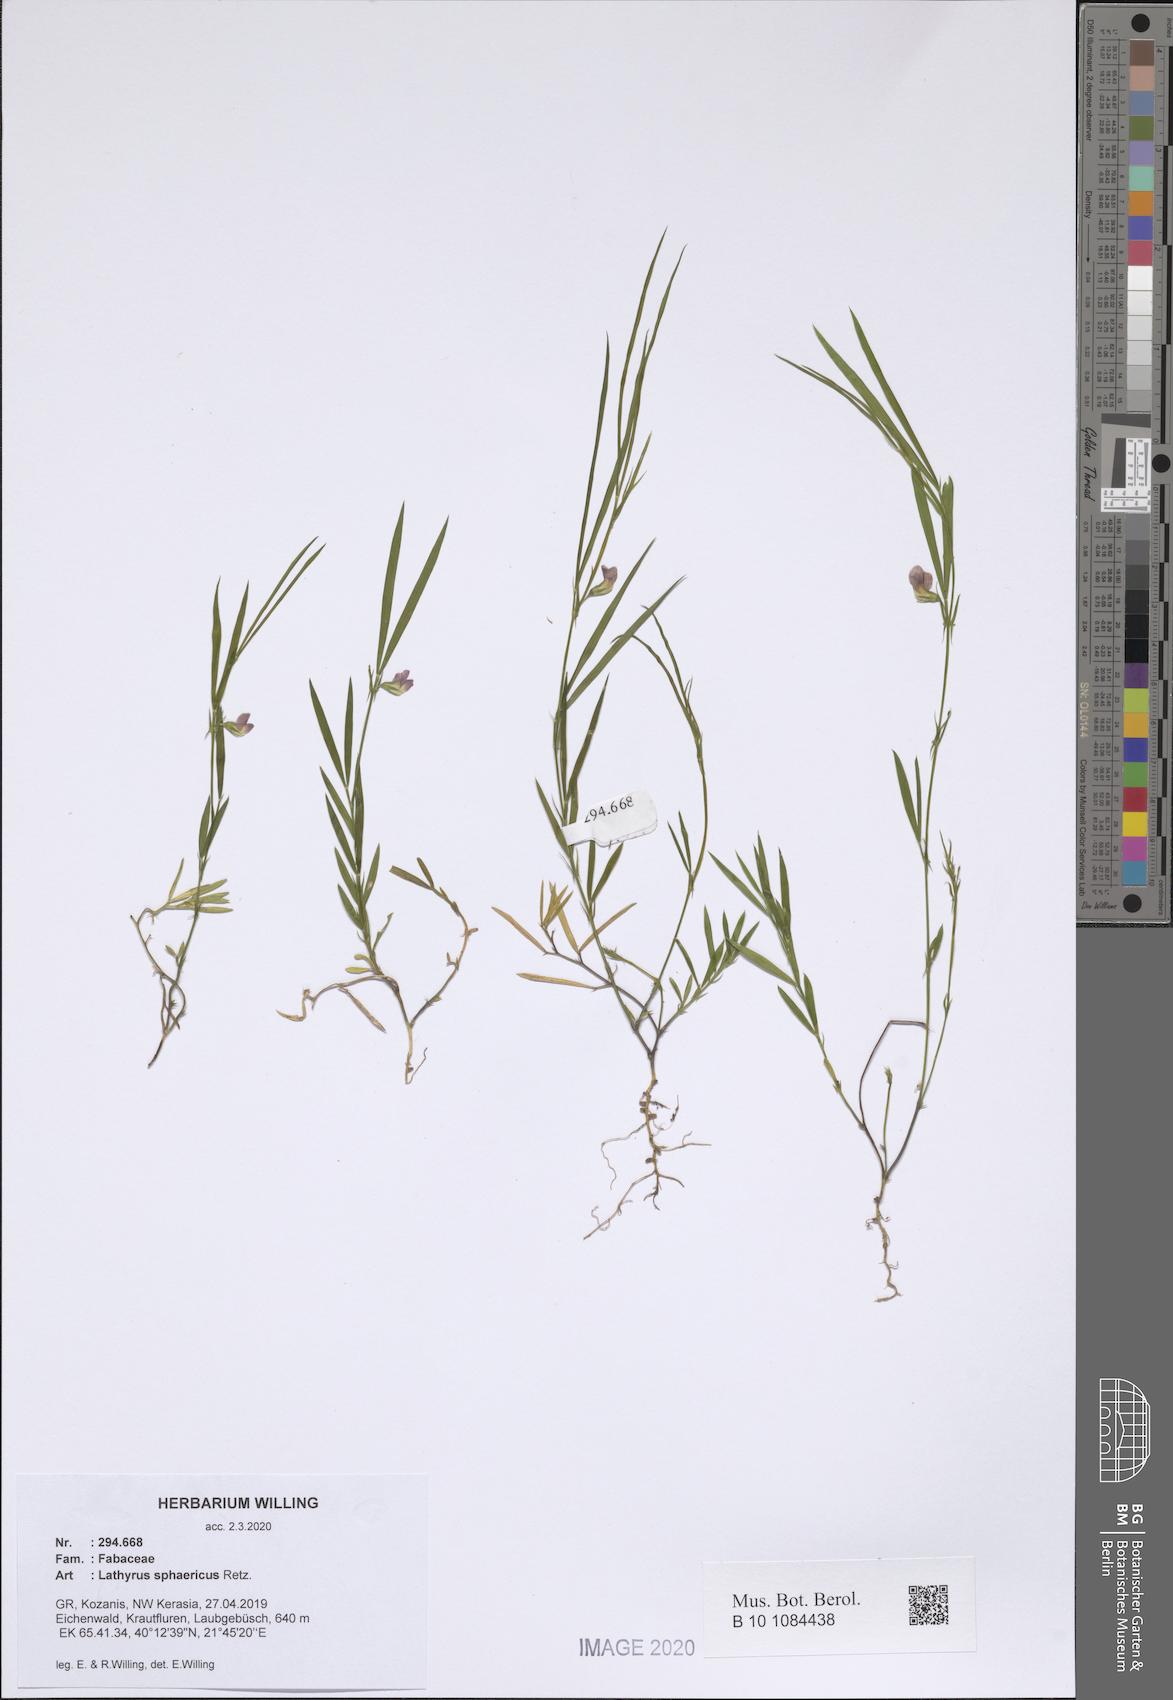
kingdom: Plantae
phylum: Tracheophyta
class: Magnoliopsida
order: Fabales
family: Fabaceae
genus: Lathyrus
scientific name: Lathyrus sphaericus
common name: Grass pea
